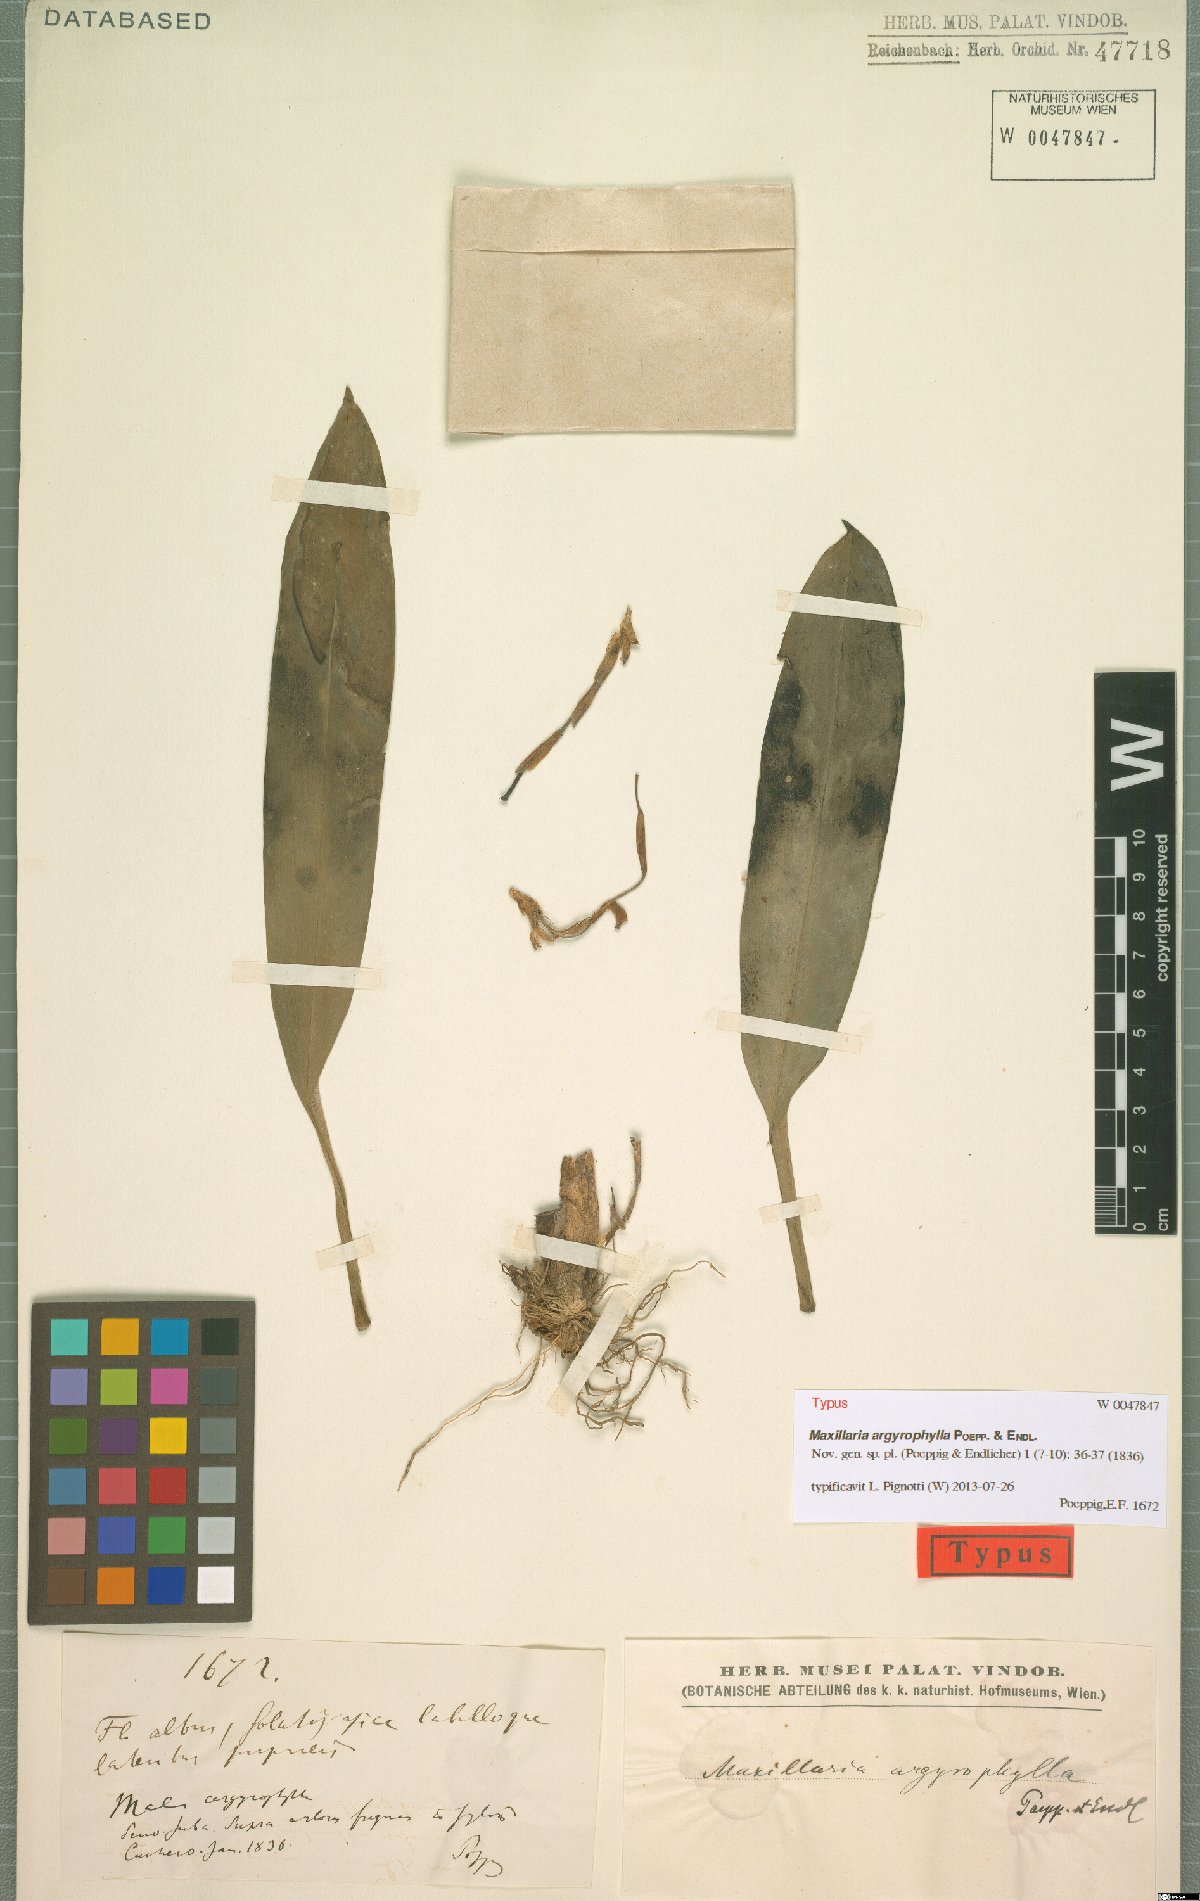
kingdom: Plantae
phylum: Tracheophyta
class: Liliopsida
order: Asparagales
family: Orchidaceae
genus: Maxillaria
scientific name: Maxillaria argyrophylla
